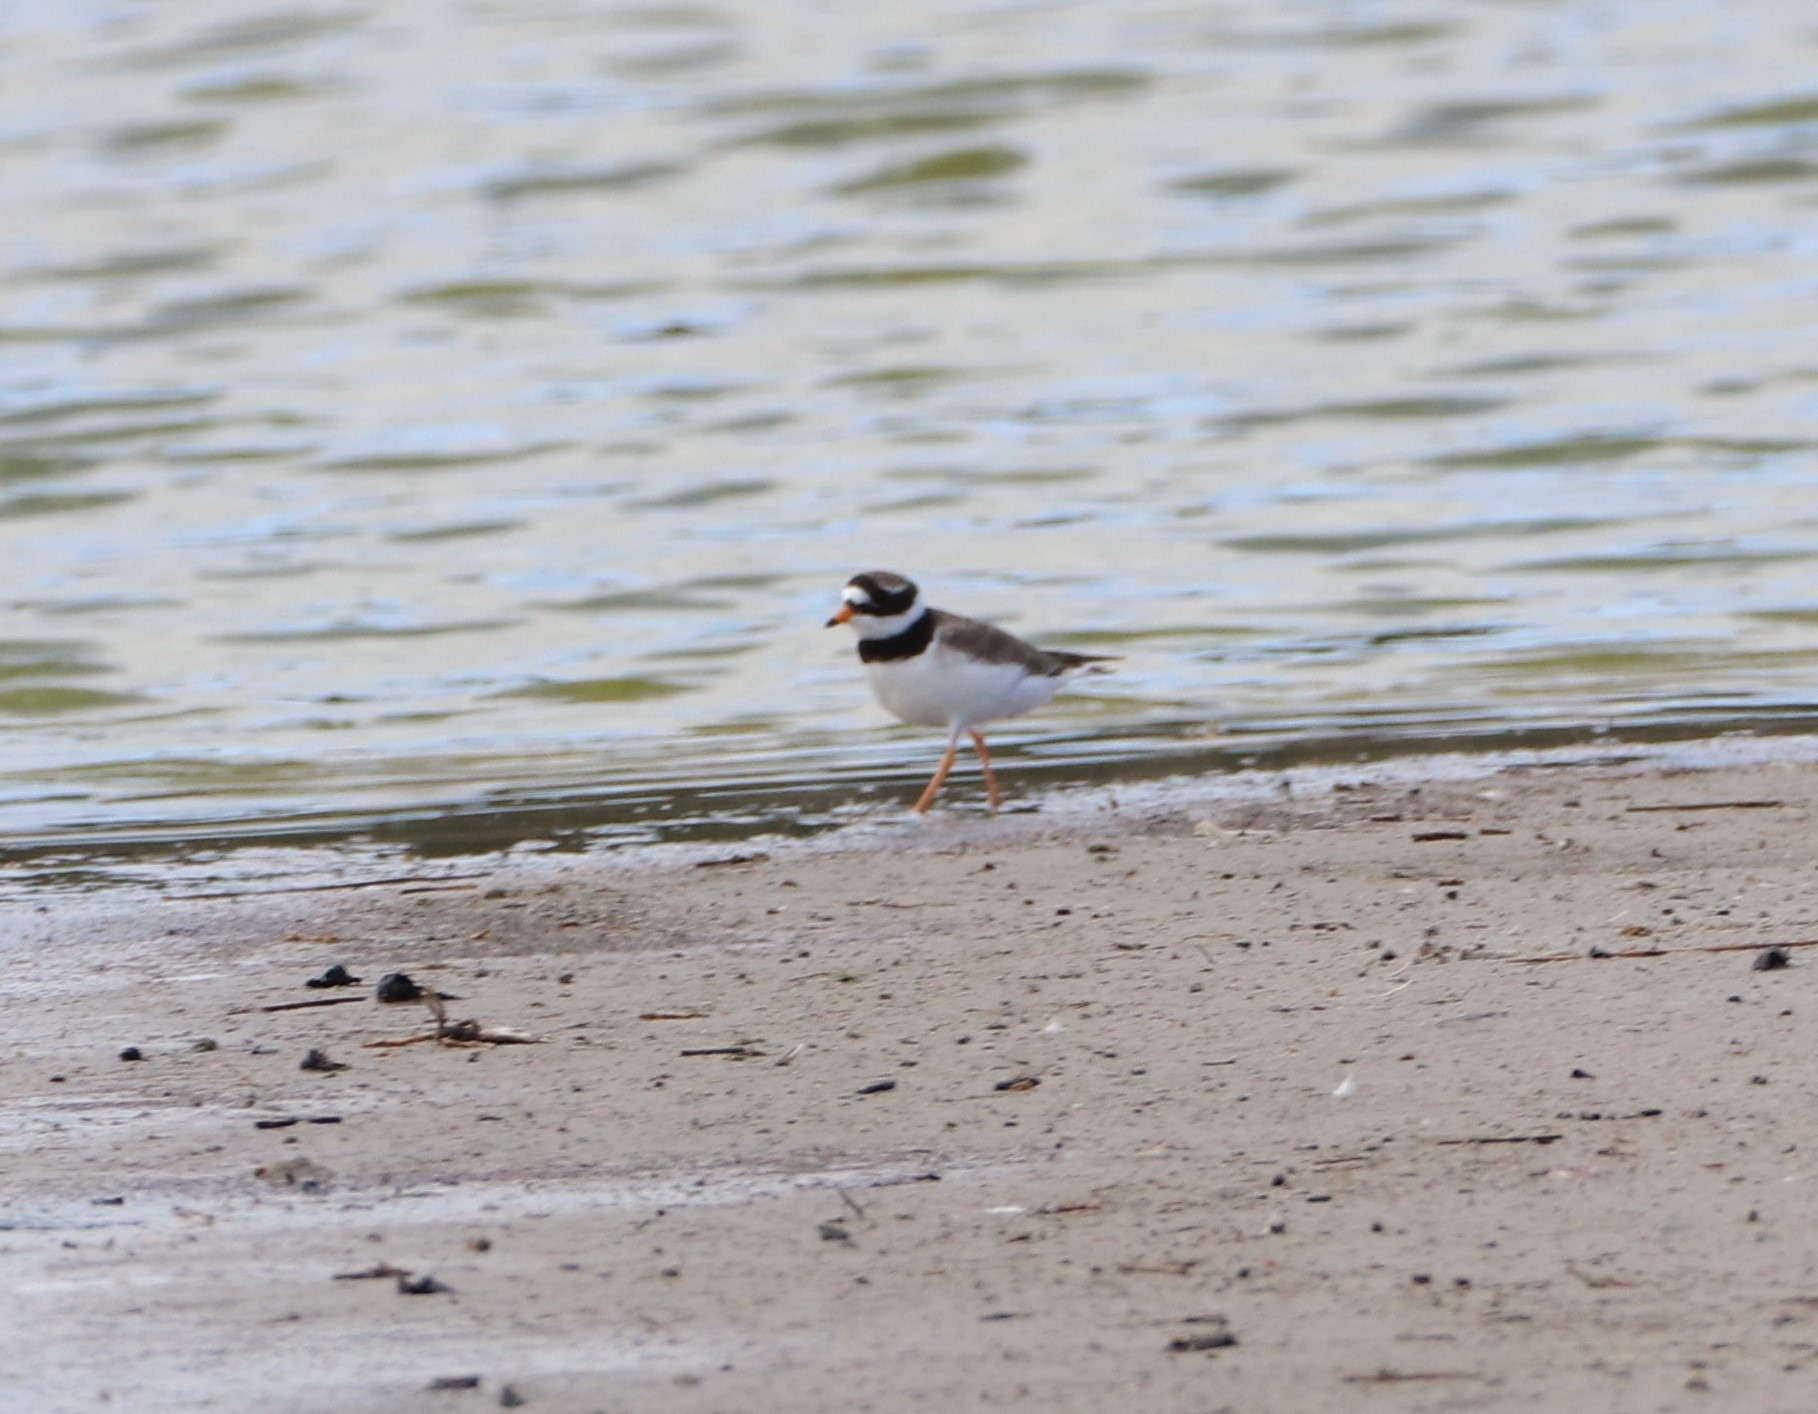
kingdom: Animalia
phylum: Chordata
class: Aves
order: Charadriiformes
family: Charadriidae
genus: Charadrius
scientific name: Charadrius hiaticula
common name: Stor præstekrave
